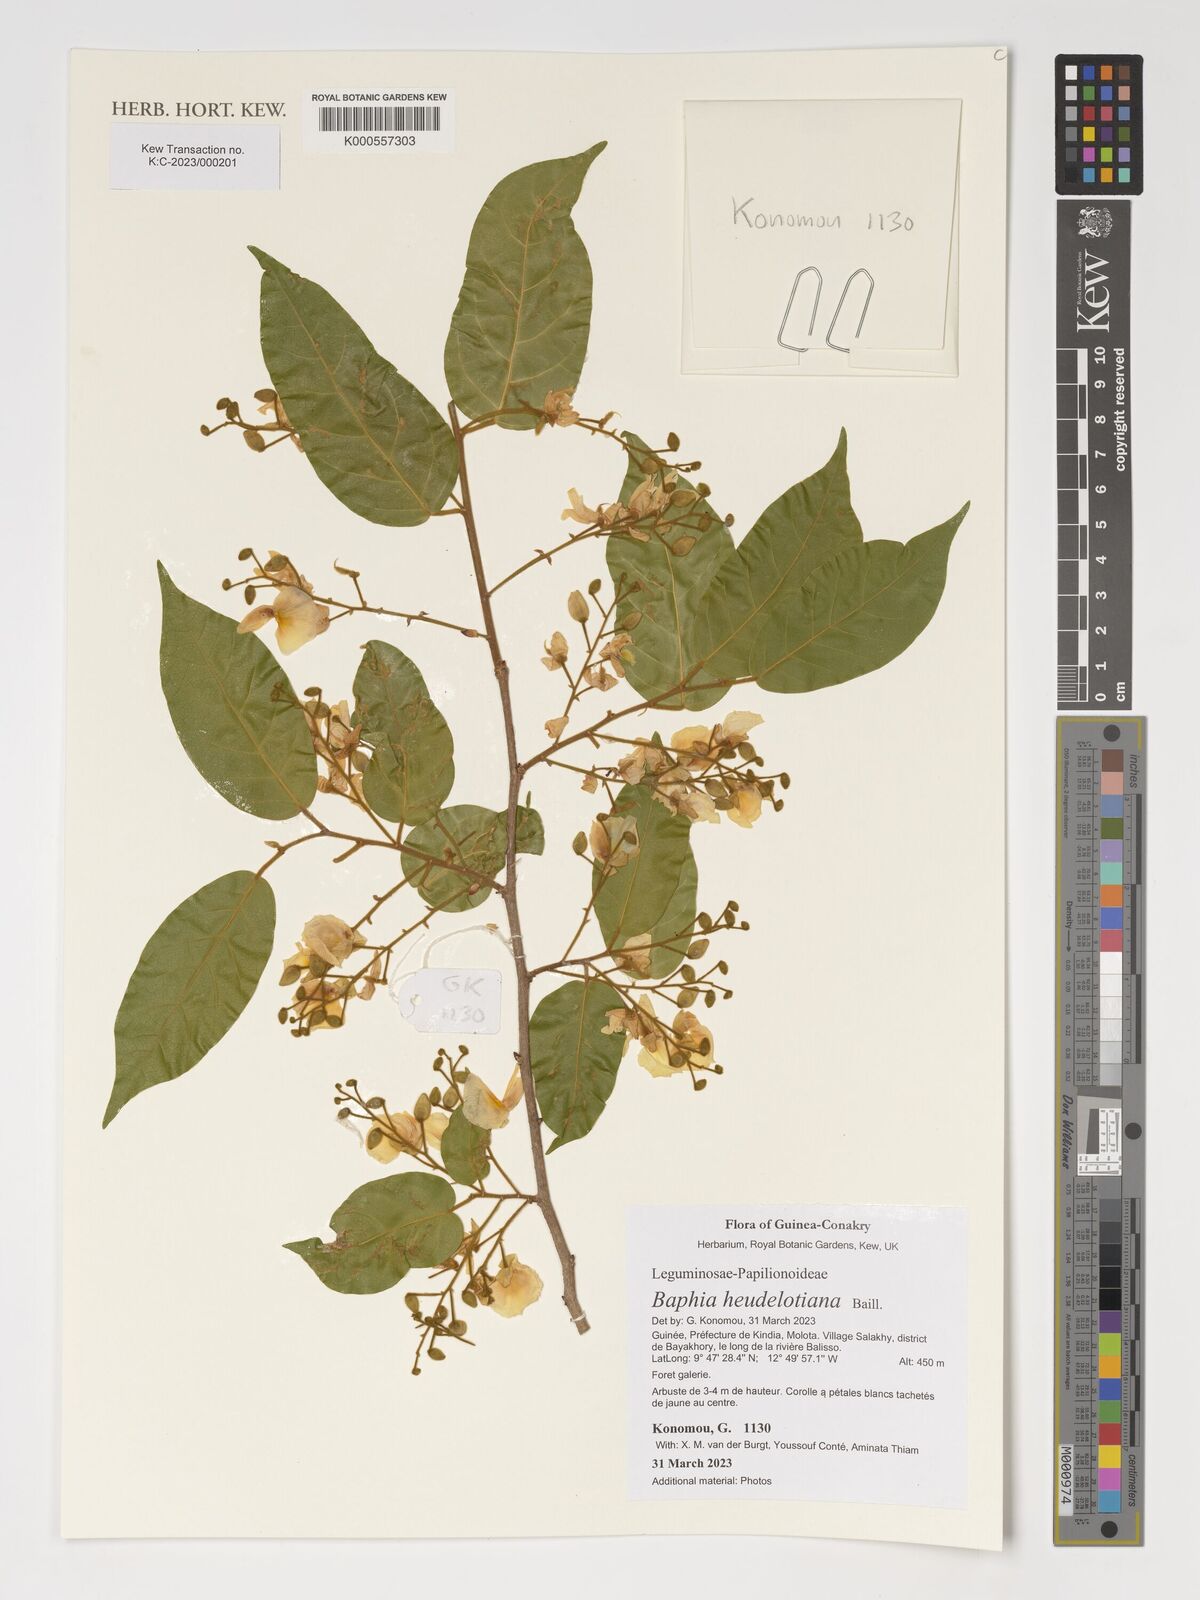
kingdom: Plantae
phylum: Tracheophyta
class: Magnoliopsida
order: Fabales
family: Fabaceae
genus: Baphia
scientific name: Baphia heudelotiana
